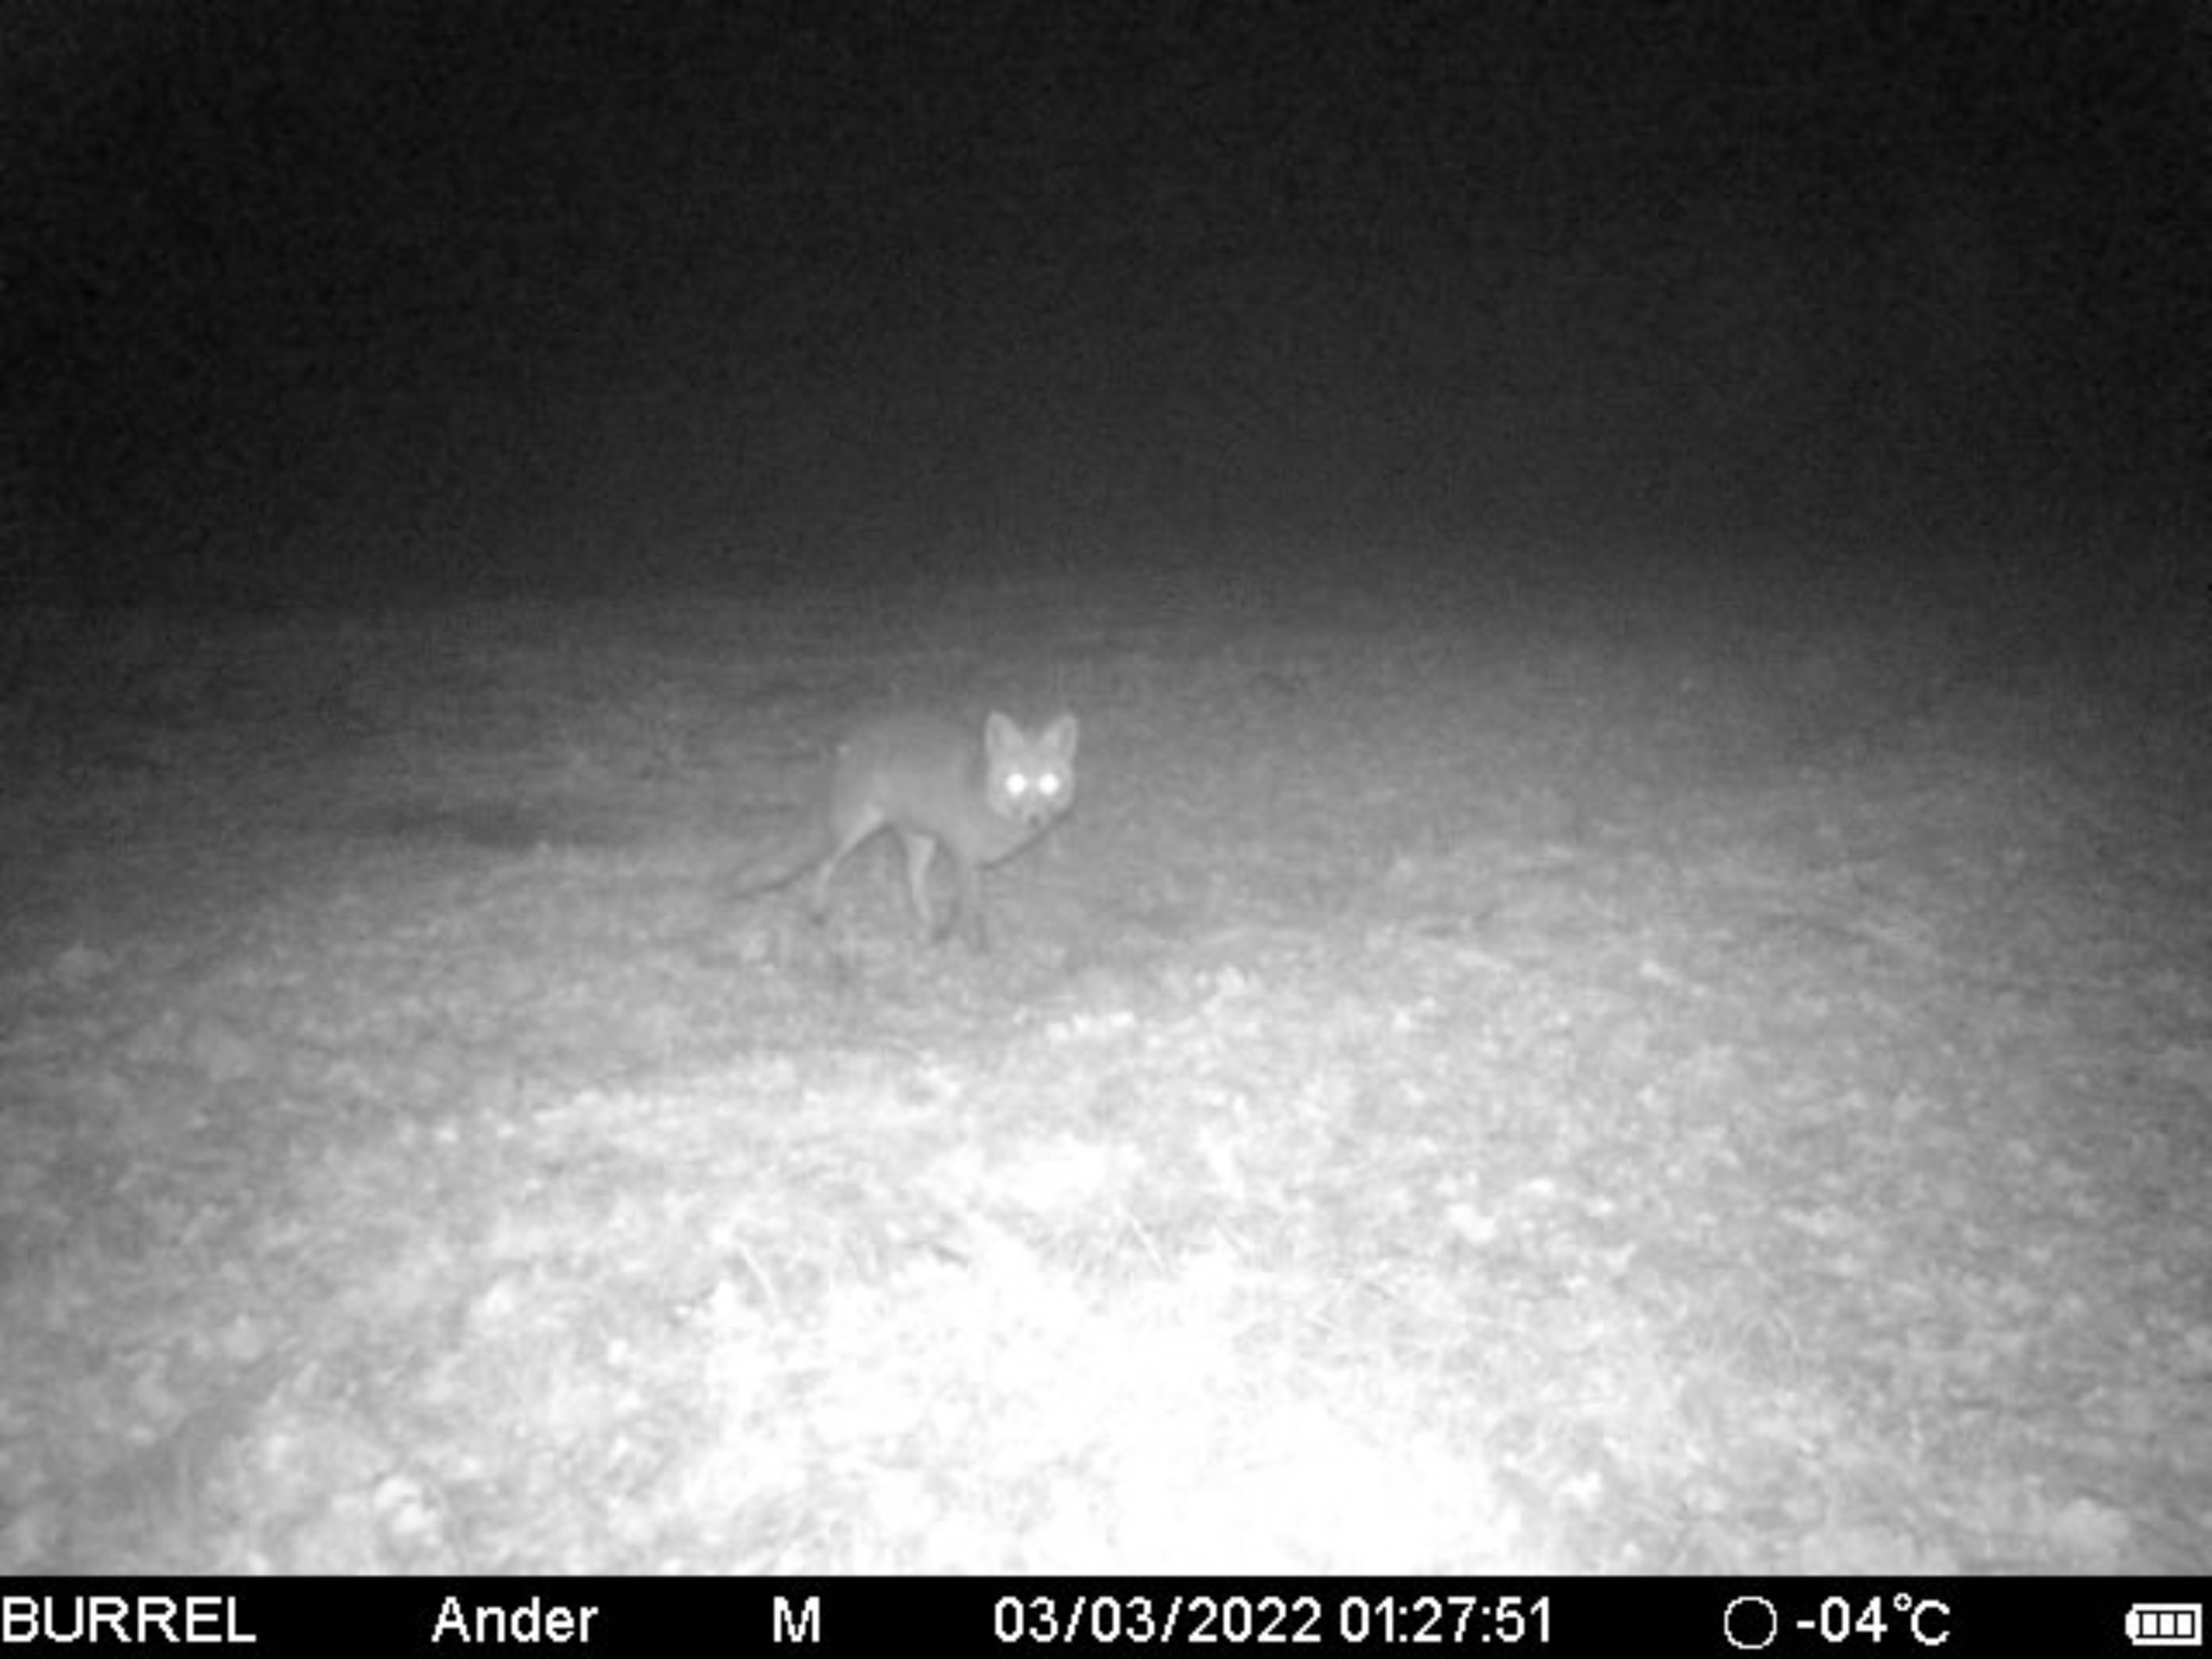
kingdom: Animalia
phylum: Chordata
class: Mammalia
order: Carnivora
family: Canidae
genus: Vulpes
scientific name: Vulpes vulpes
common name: Ræv
